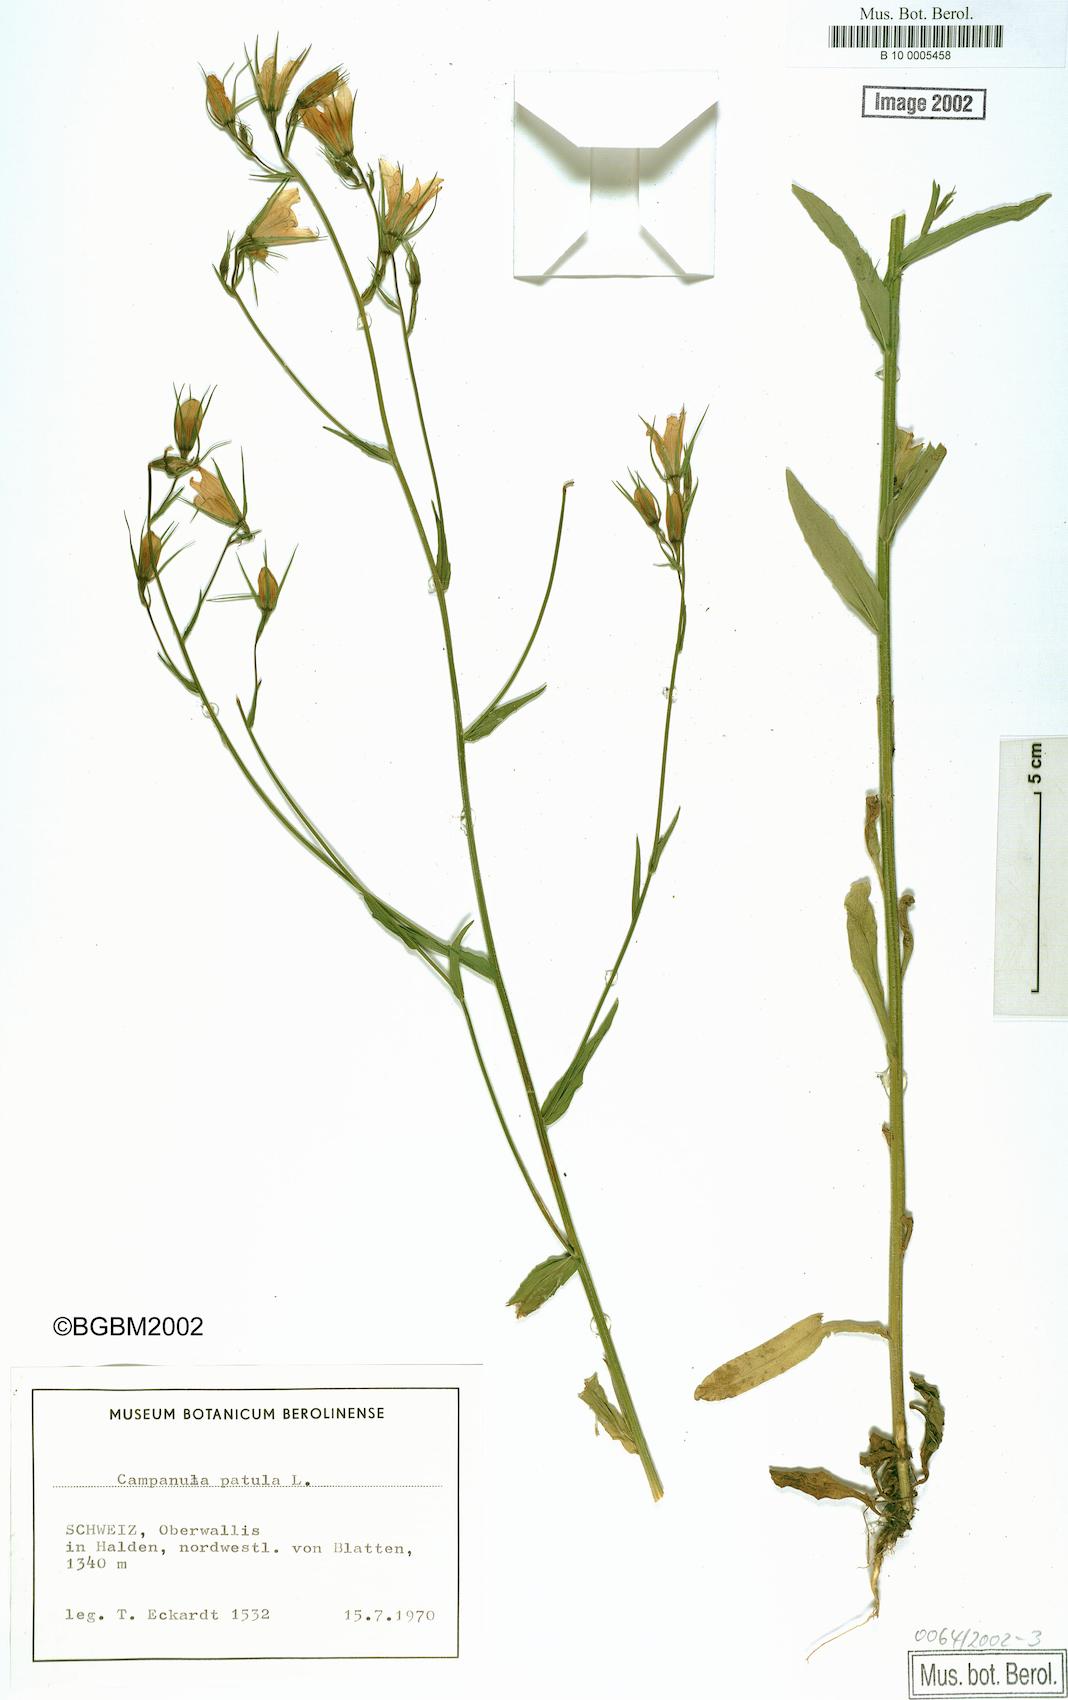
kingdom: Plantae
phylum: Tracheophyta
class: Magnoliopsida
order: Asterales
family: Campanulaceae
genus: Campanula
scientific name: Campanula patula
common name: Spreading bellflower
